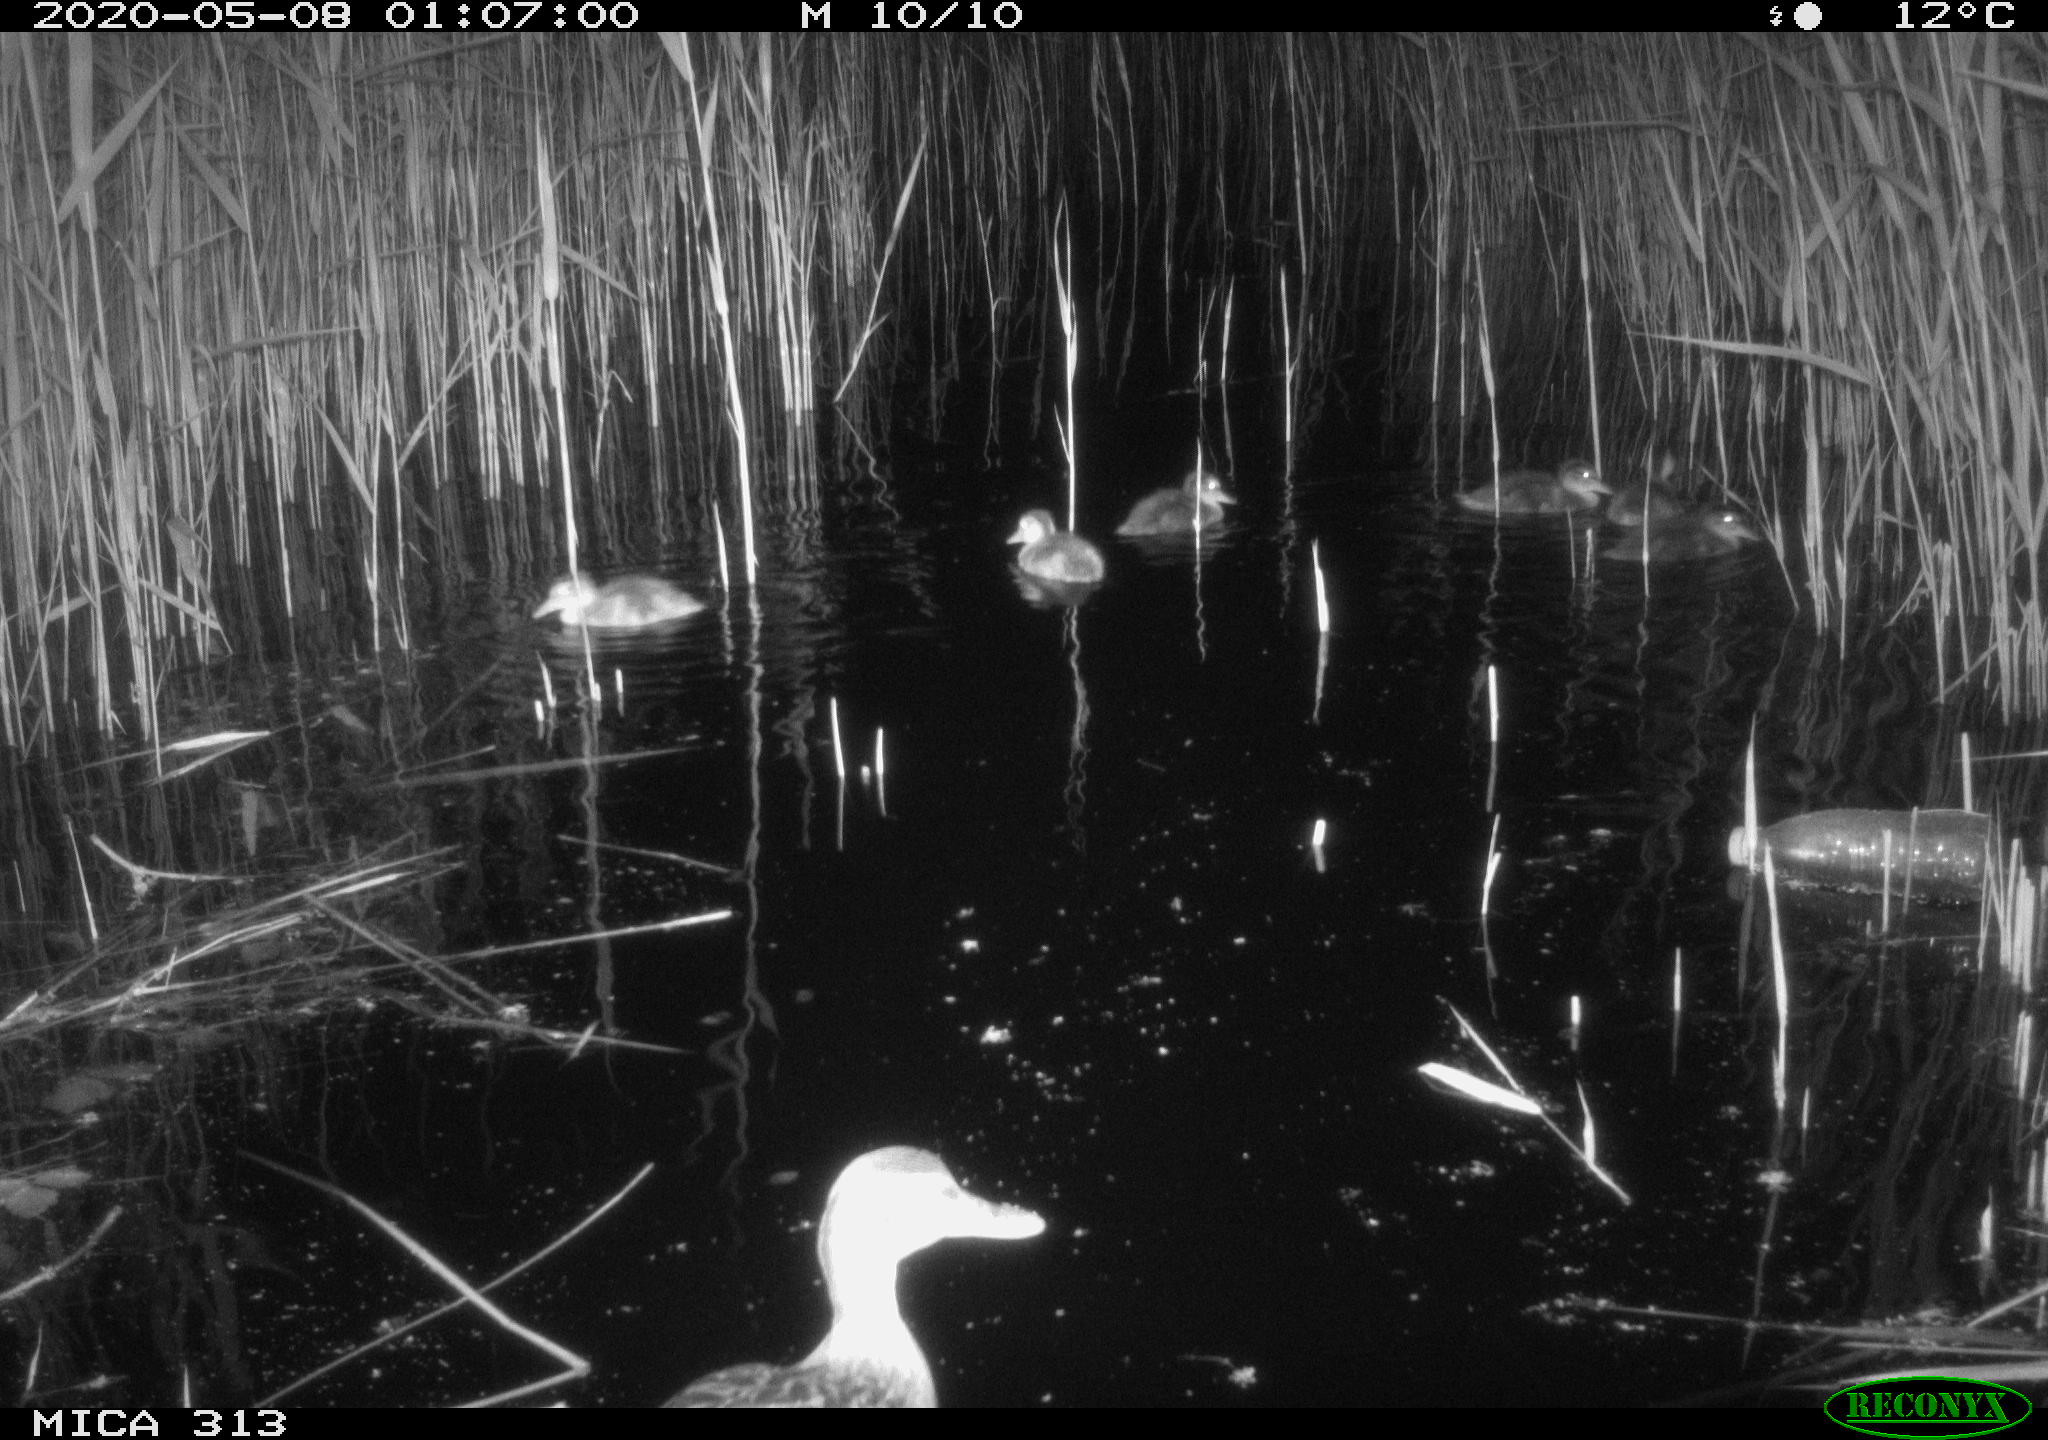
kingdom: Animalia
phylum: Chordata
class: Aves
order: Anseriformes
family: Anatidae
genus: Anas
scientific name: Anas platyrhynchos
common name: Mallard
